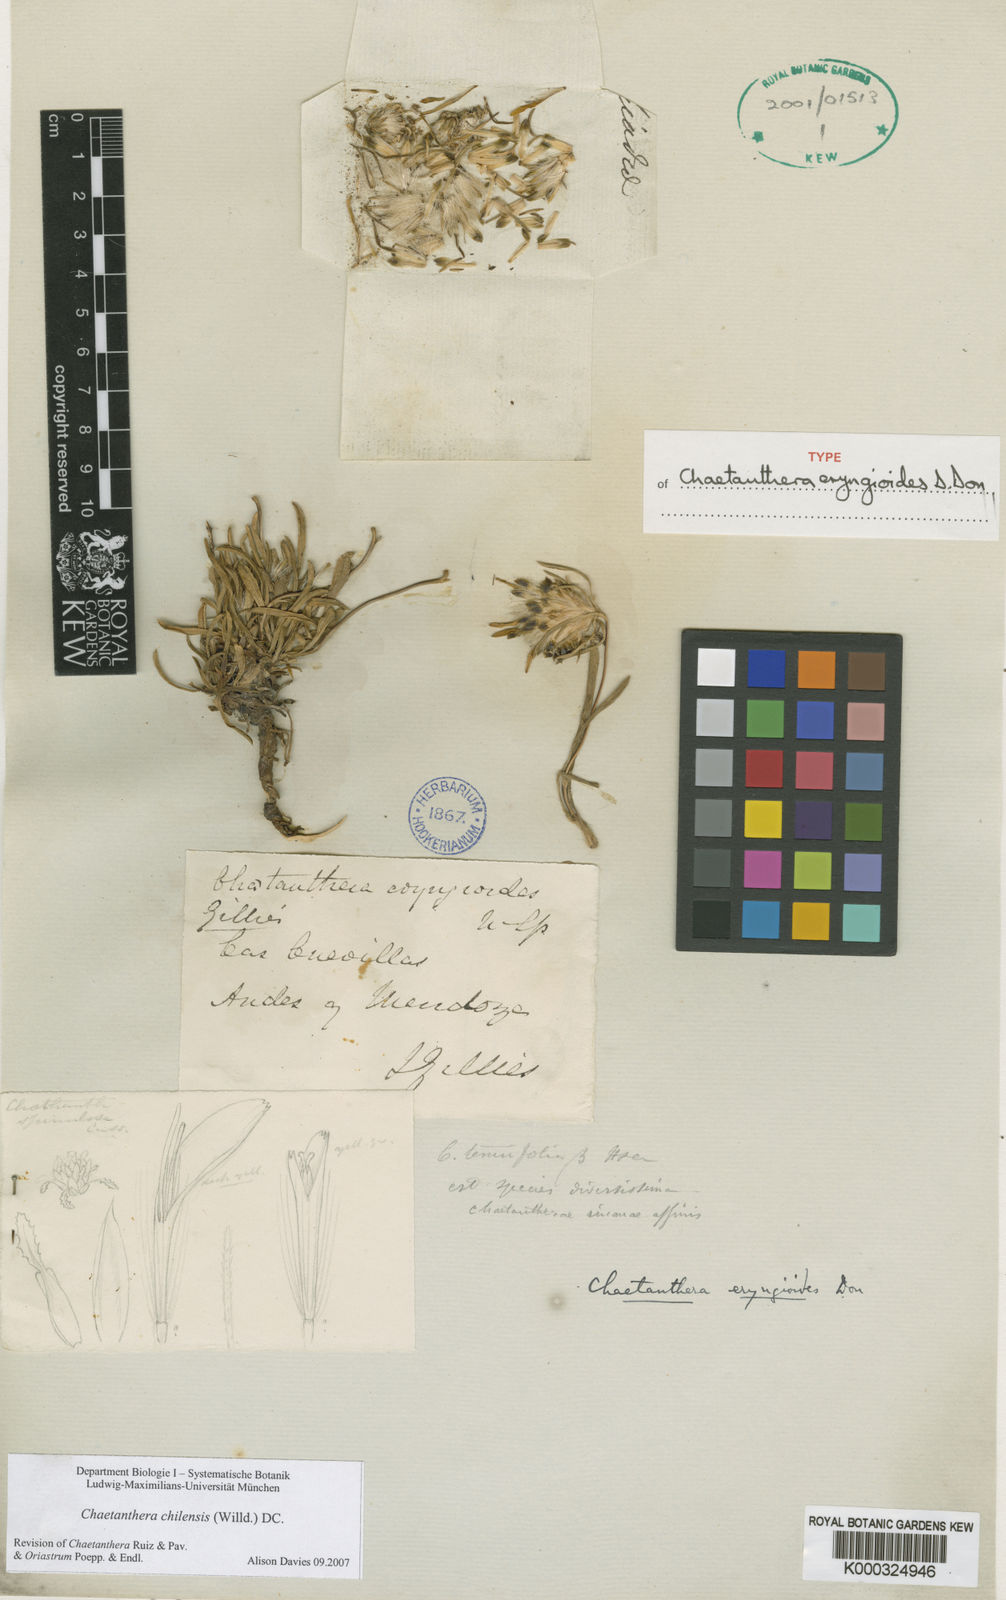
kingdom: Plantae
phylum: Tracheophyta
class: Magnoliopsida
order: Asterales
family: Asteraceae
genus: Chaetanthera
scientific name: Chaetanthera chilensis
